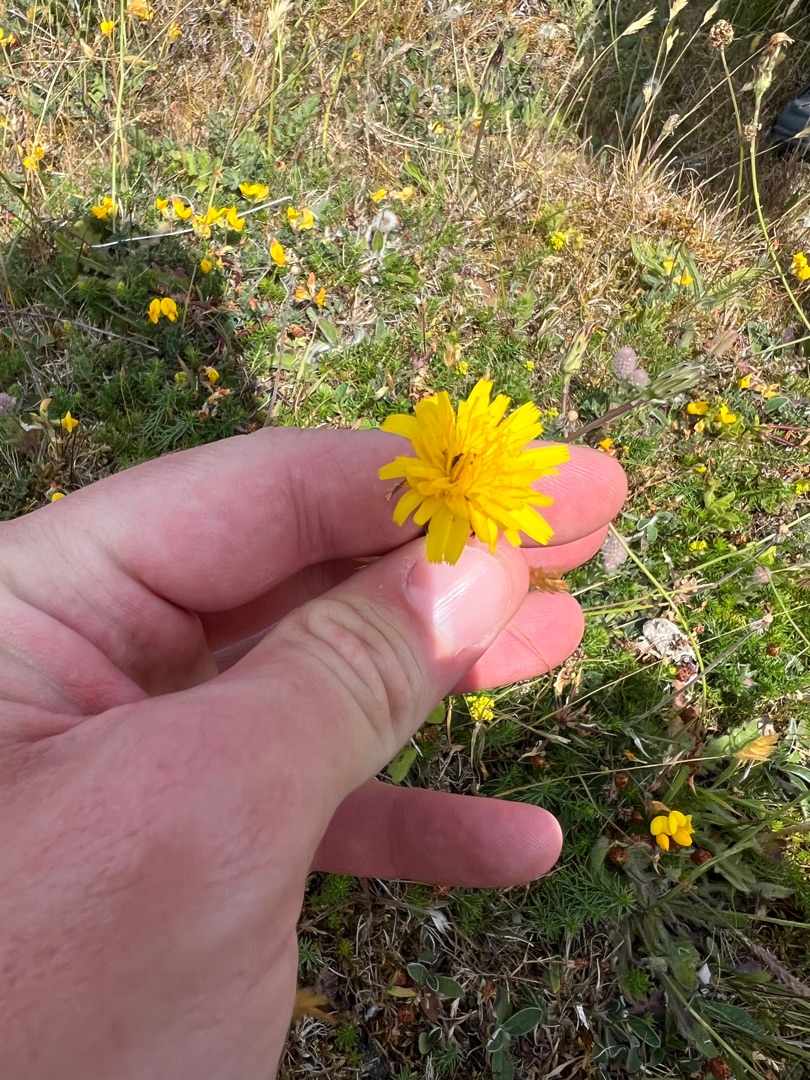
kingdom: Plantae
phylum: Tracheophyta
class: Magnoliopsida
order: Asterales
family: Asteraceae
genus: Hypochaeris
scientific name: Hypochaeris radicata
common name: Almindelig kongepen
